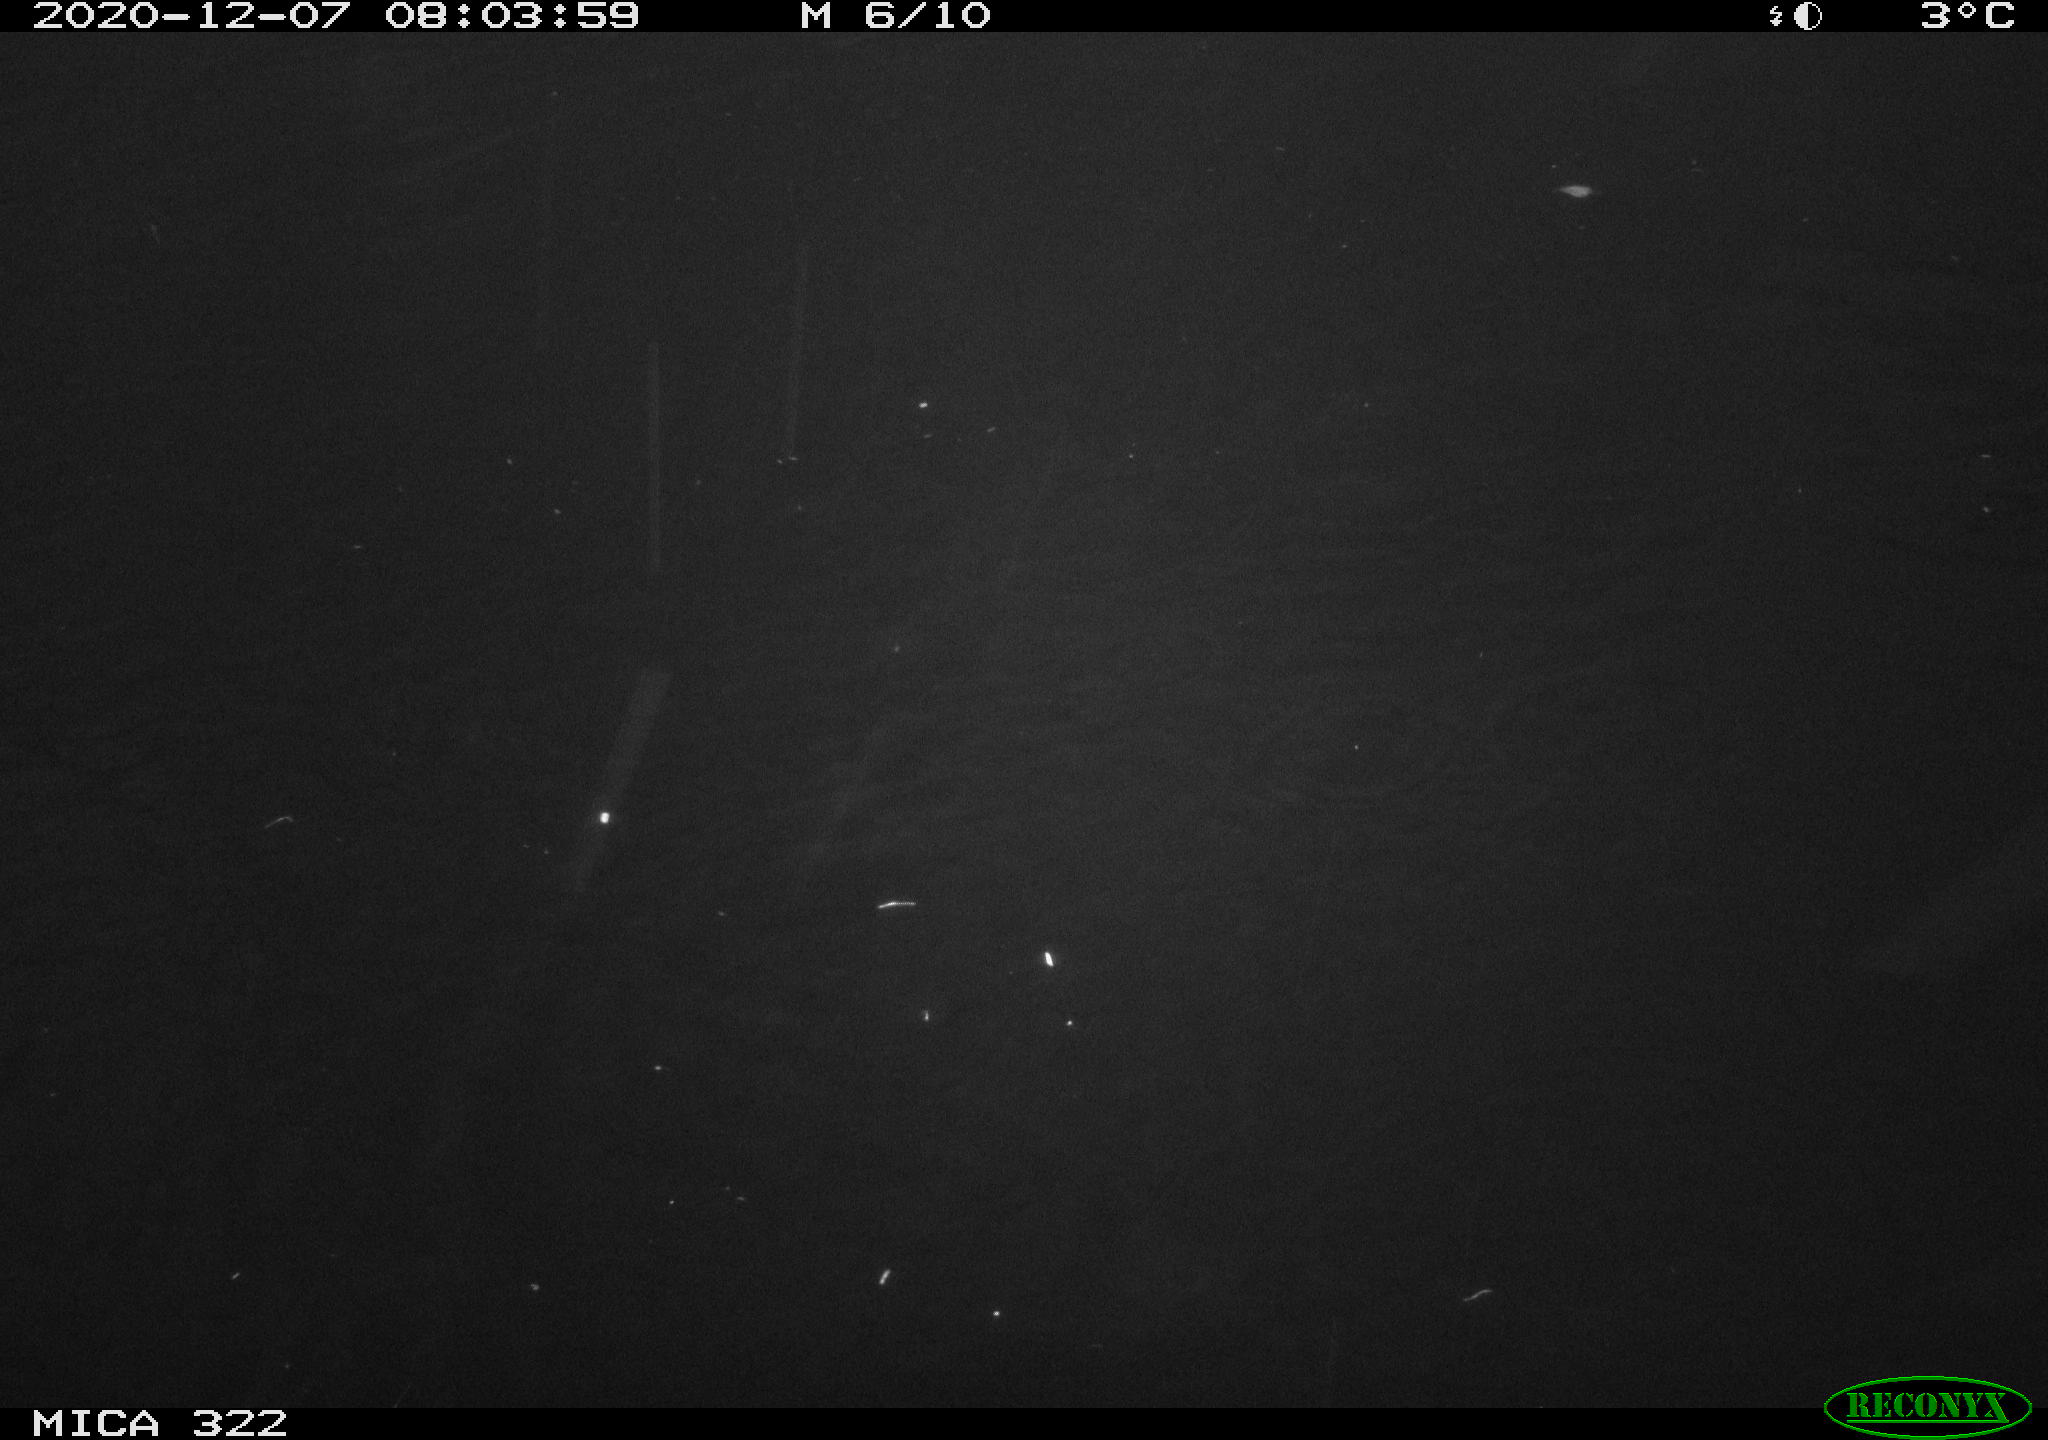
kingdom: Animalia
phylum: Chordata
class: Aves
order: Gruiformes
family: Rallidae
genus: Fulica
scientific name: Fulica atra
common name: Eurasian coot
